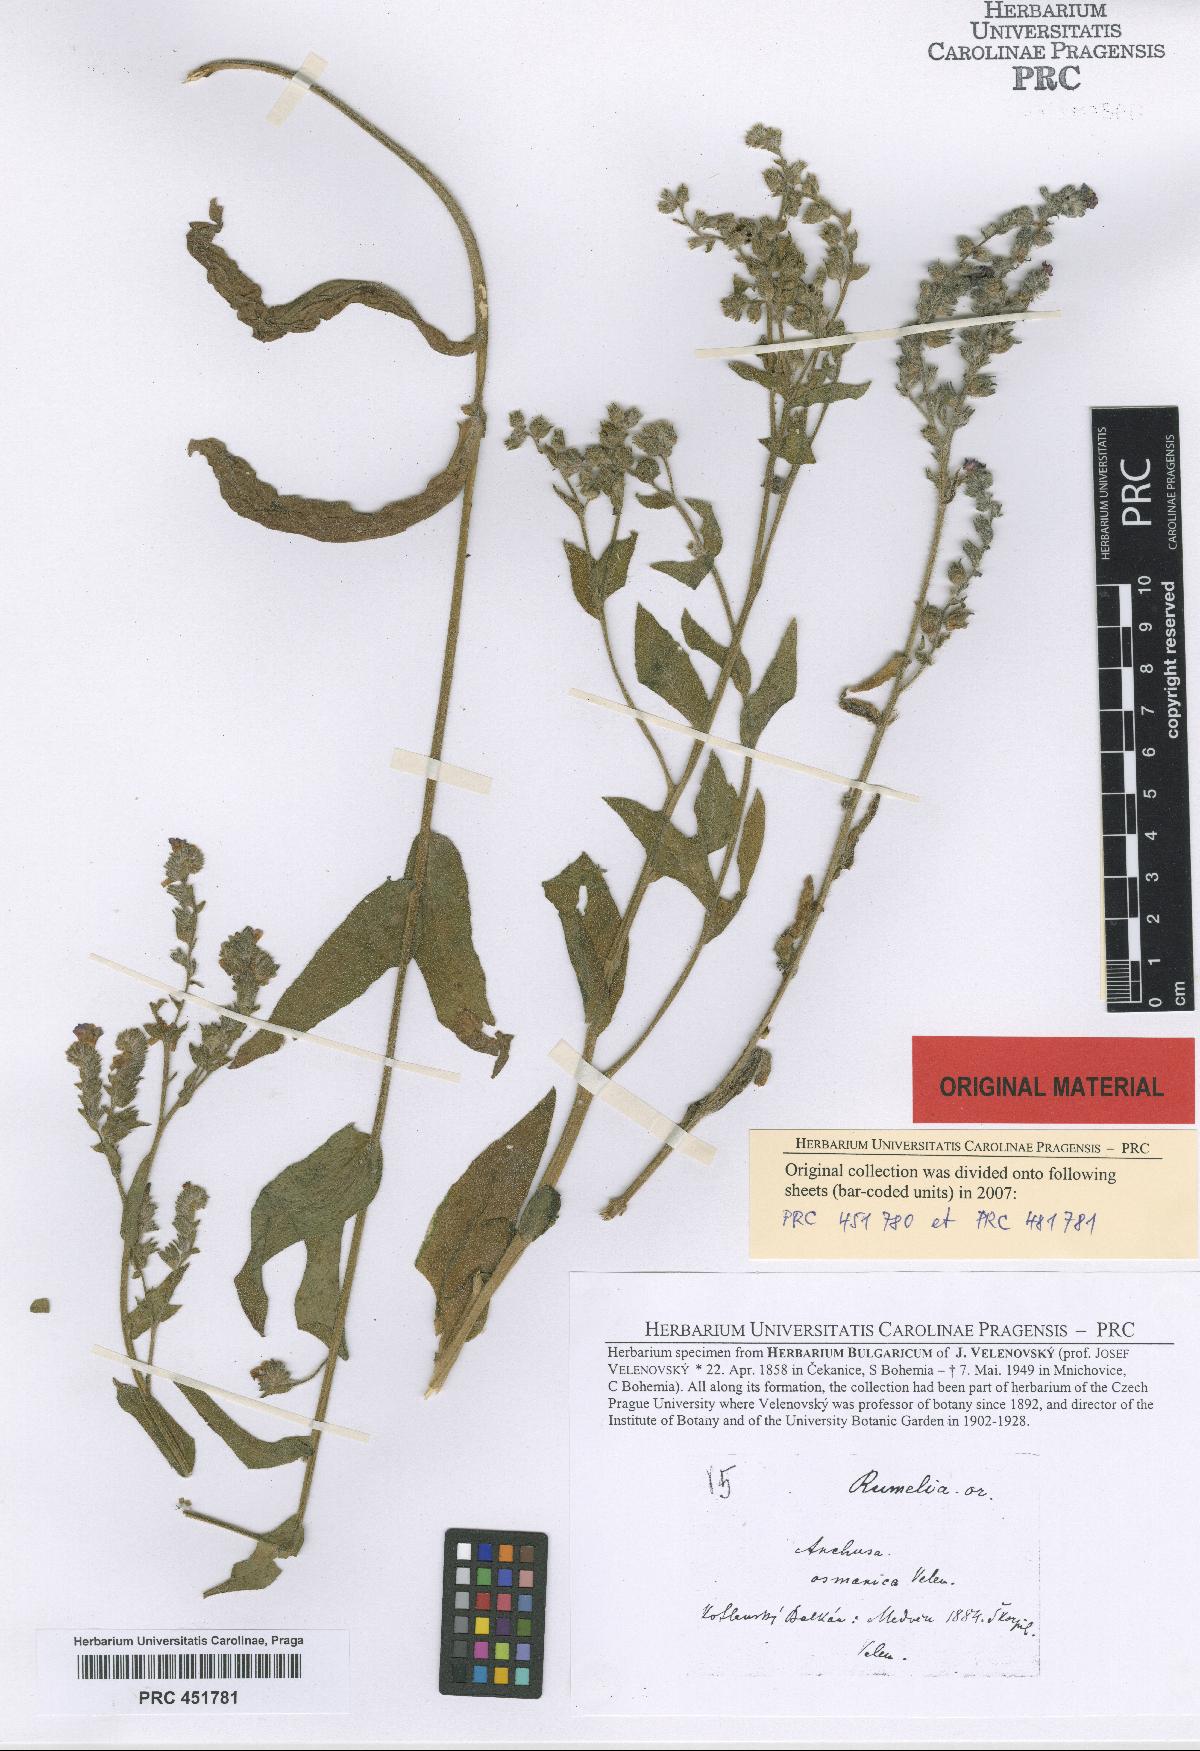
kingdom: Plantae
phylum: Tracheophyta
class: Magnoliopsida
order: Boraginales
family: Boraginaceae
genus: Anchusa
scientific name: Anchusa officinalis
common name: Alkanet
